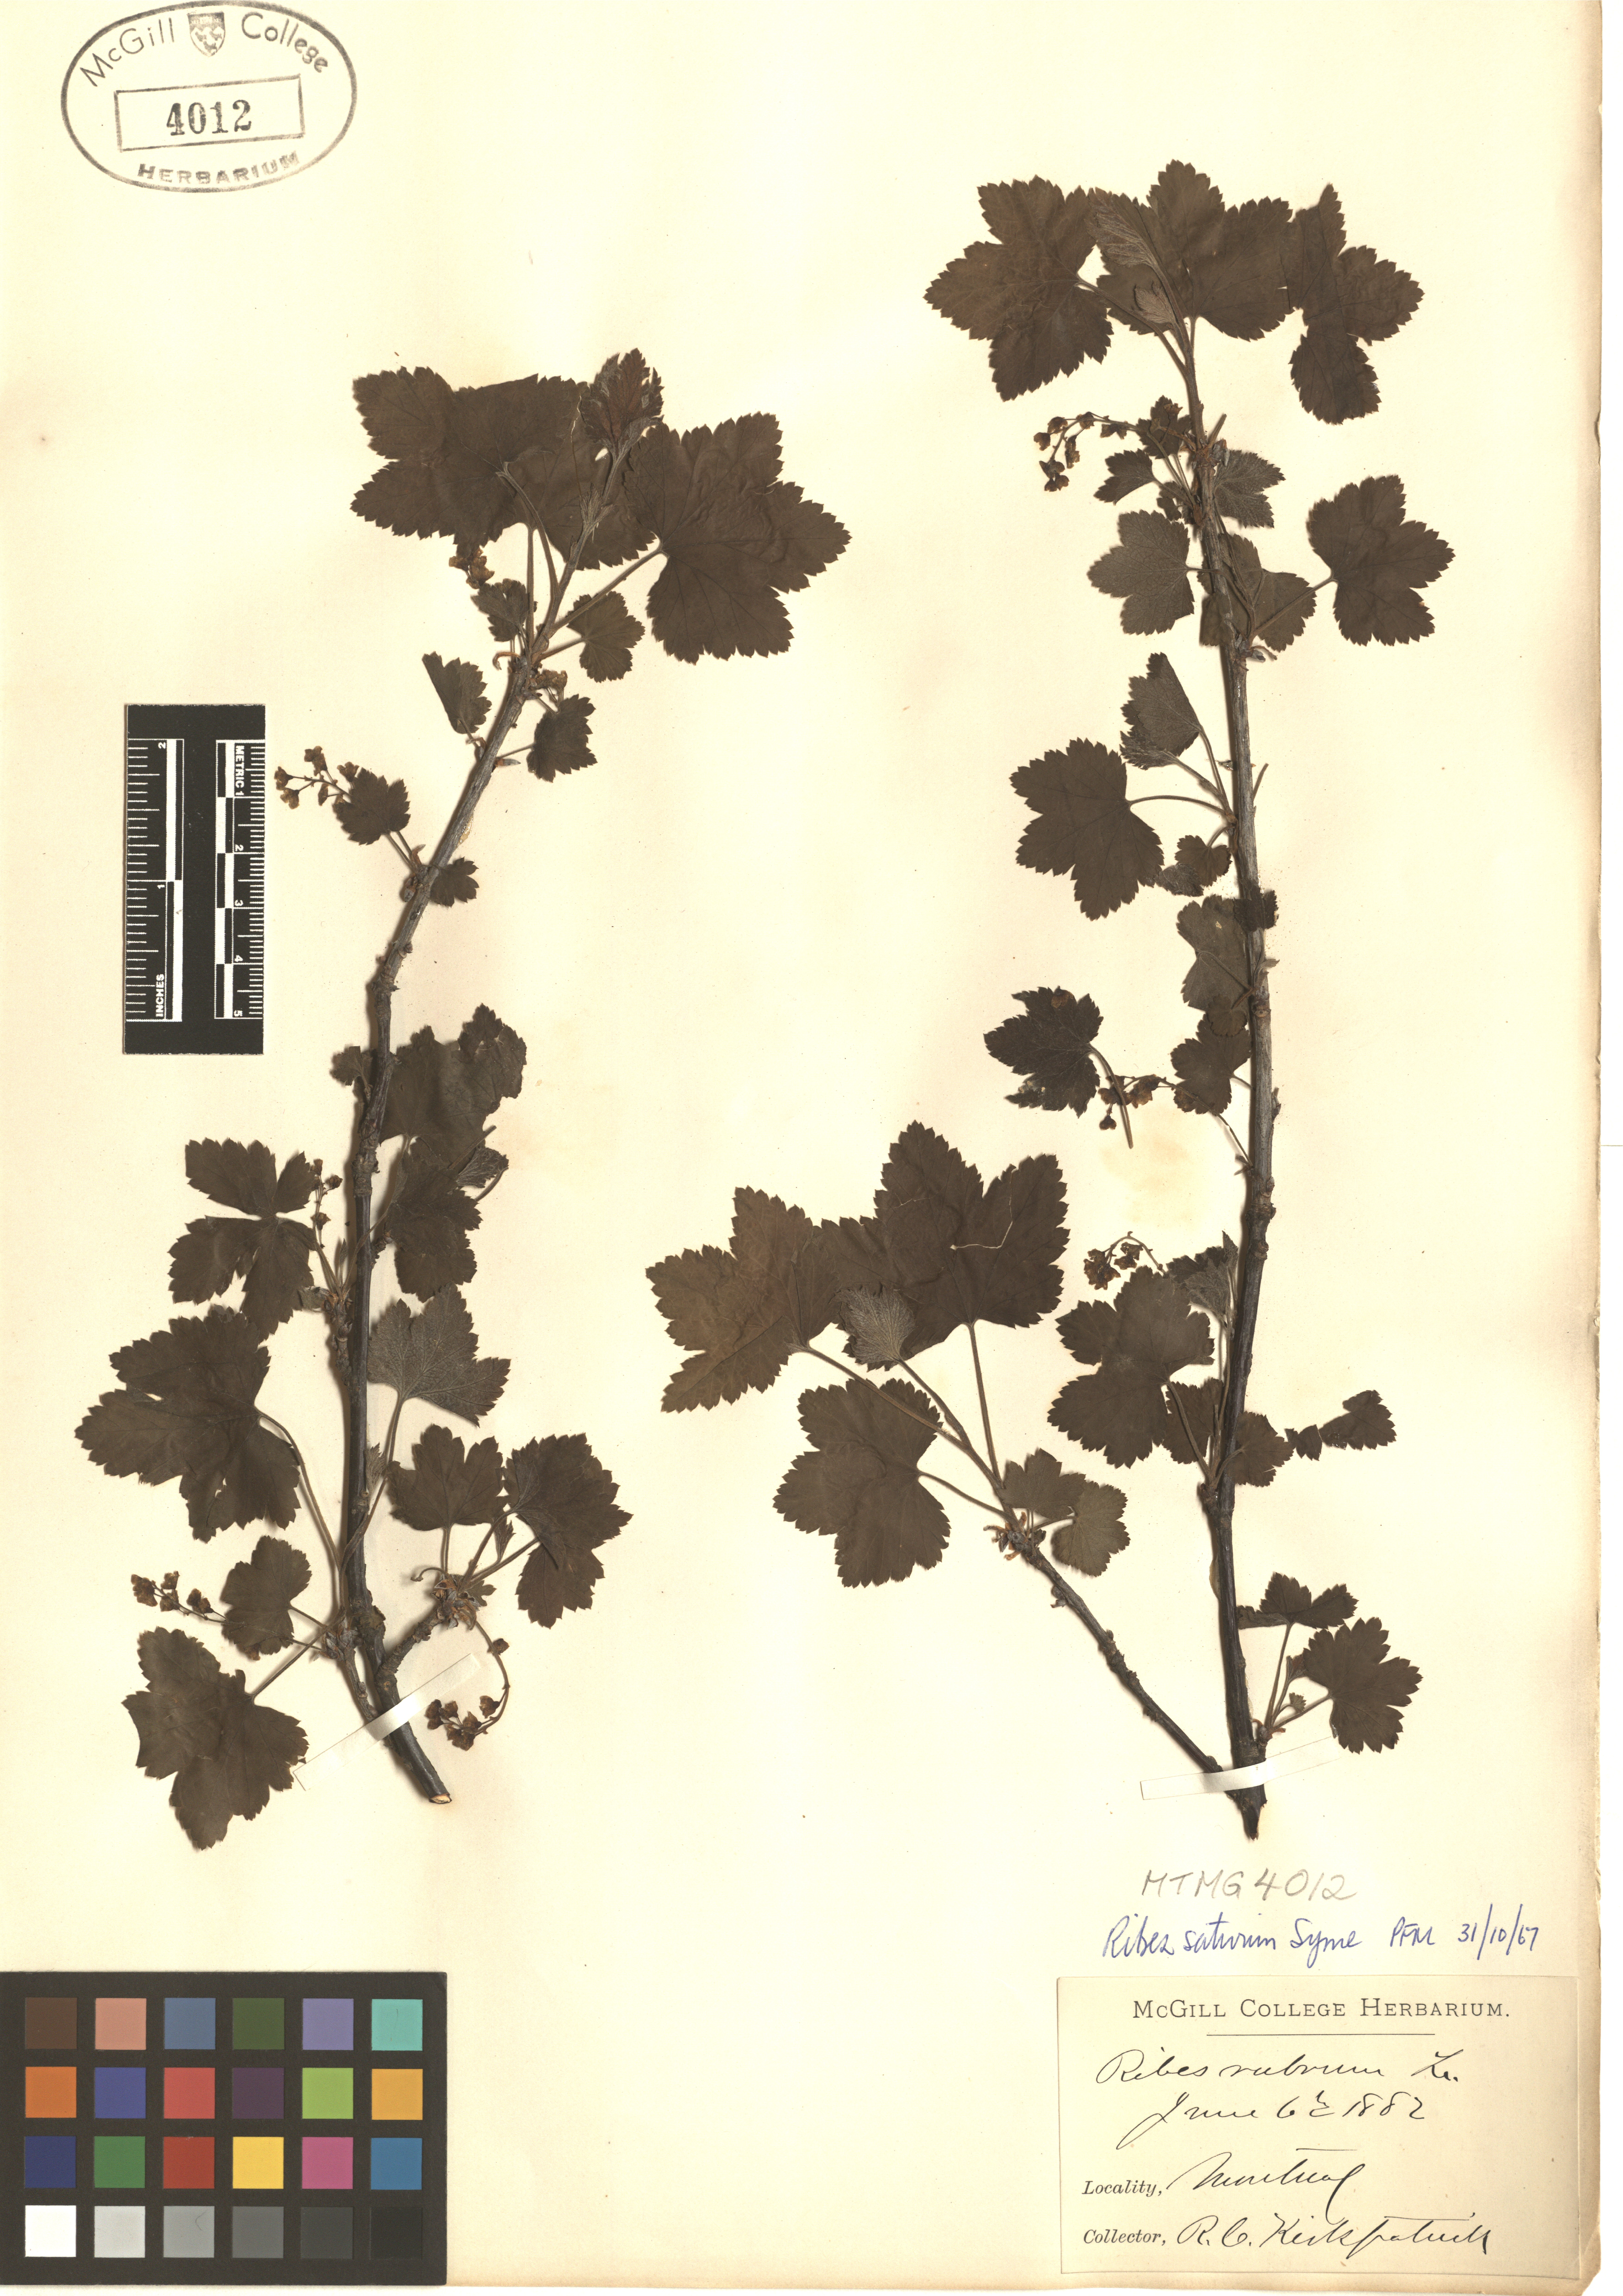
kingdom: Plantae
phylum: Tracheophyta
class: Magnoliopsida
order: Saxifragales
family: Grossulariaceae
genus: Ribes
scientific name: Ribes rubrum
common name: Red currant
